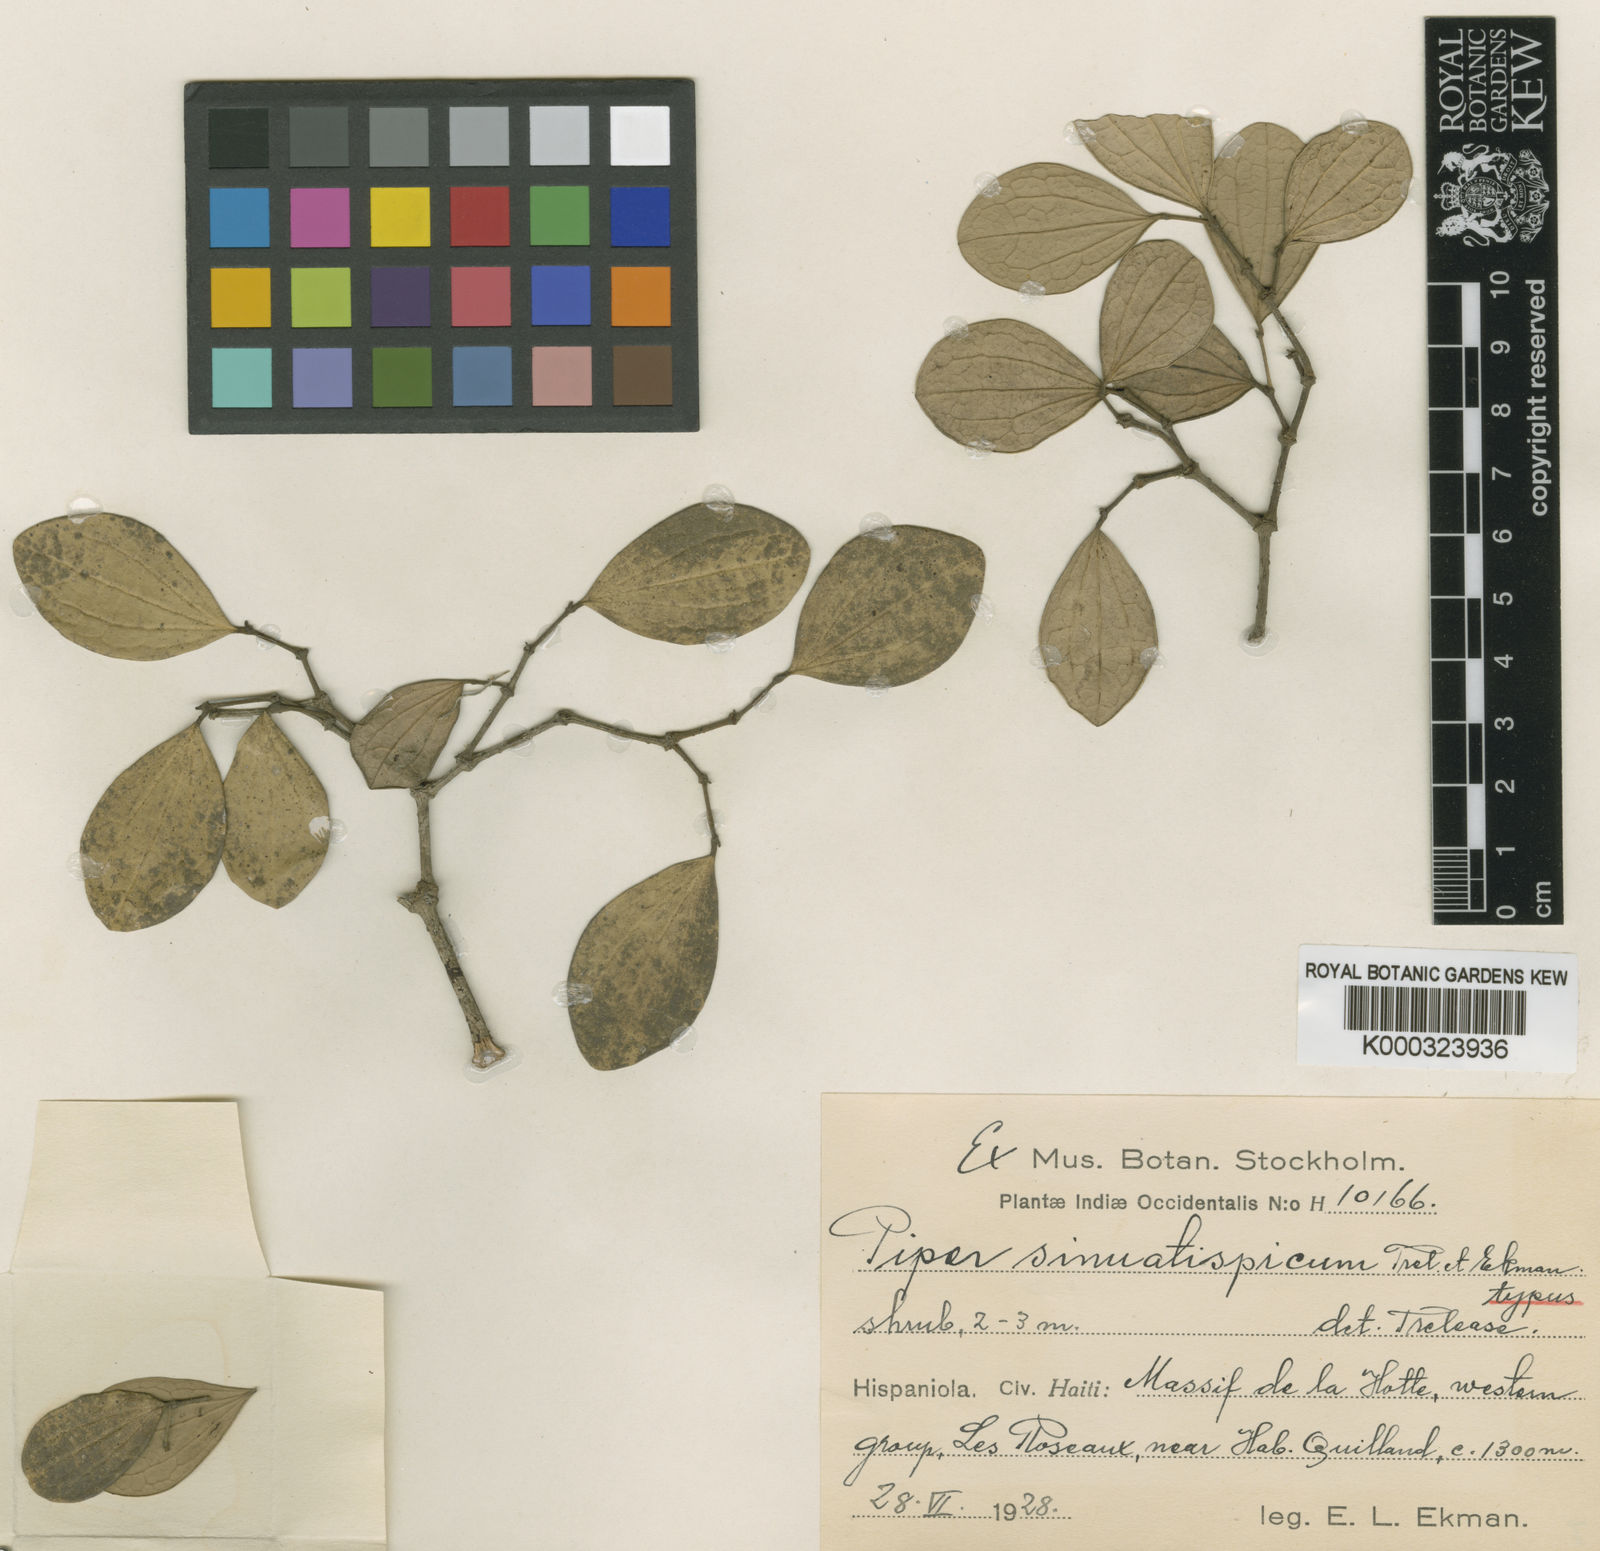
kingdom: Plantae
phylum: Tracheophyta
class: Magnoliopsida
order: Piperales
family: Piperaceae
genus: Piper
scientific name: Piper perpallidum
